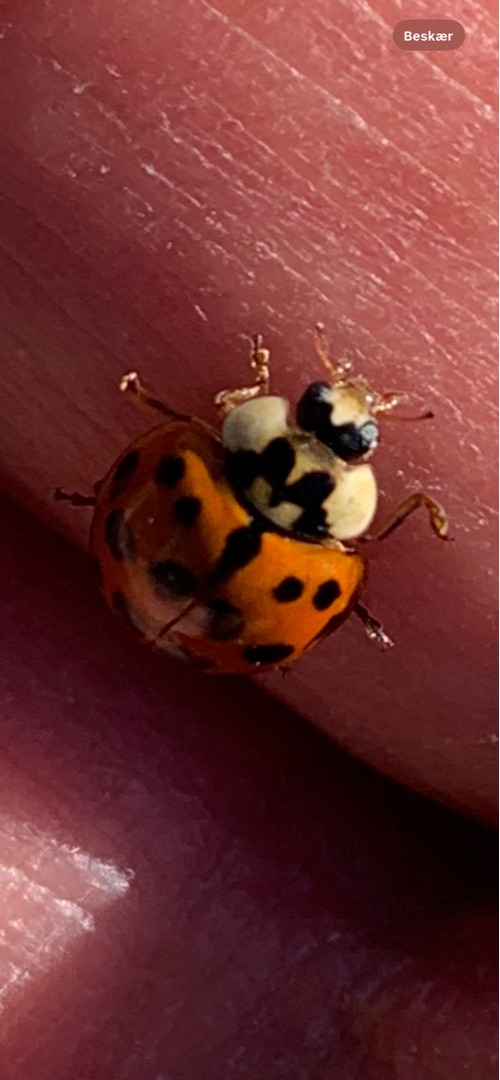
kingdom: Animalia
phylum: Arthropoda
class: Insecta
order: Coleoptera
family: Coccinellidae
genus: Harmonia
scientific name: Harmonia axyridis
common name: Harlekinmariehøne
